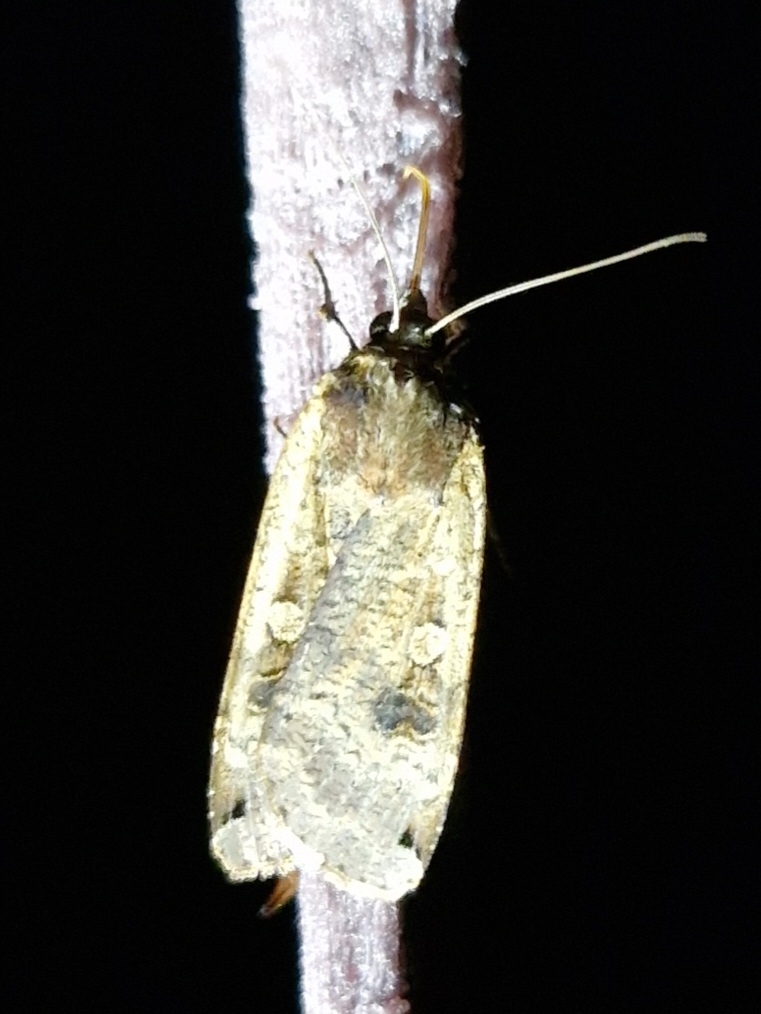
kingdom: Animalia
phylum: Arthropoda
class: Insecta
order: Lepidoptera
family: Noctuidae
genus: Noctua
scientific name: Noctua pronuba
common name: Stor smutugle
